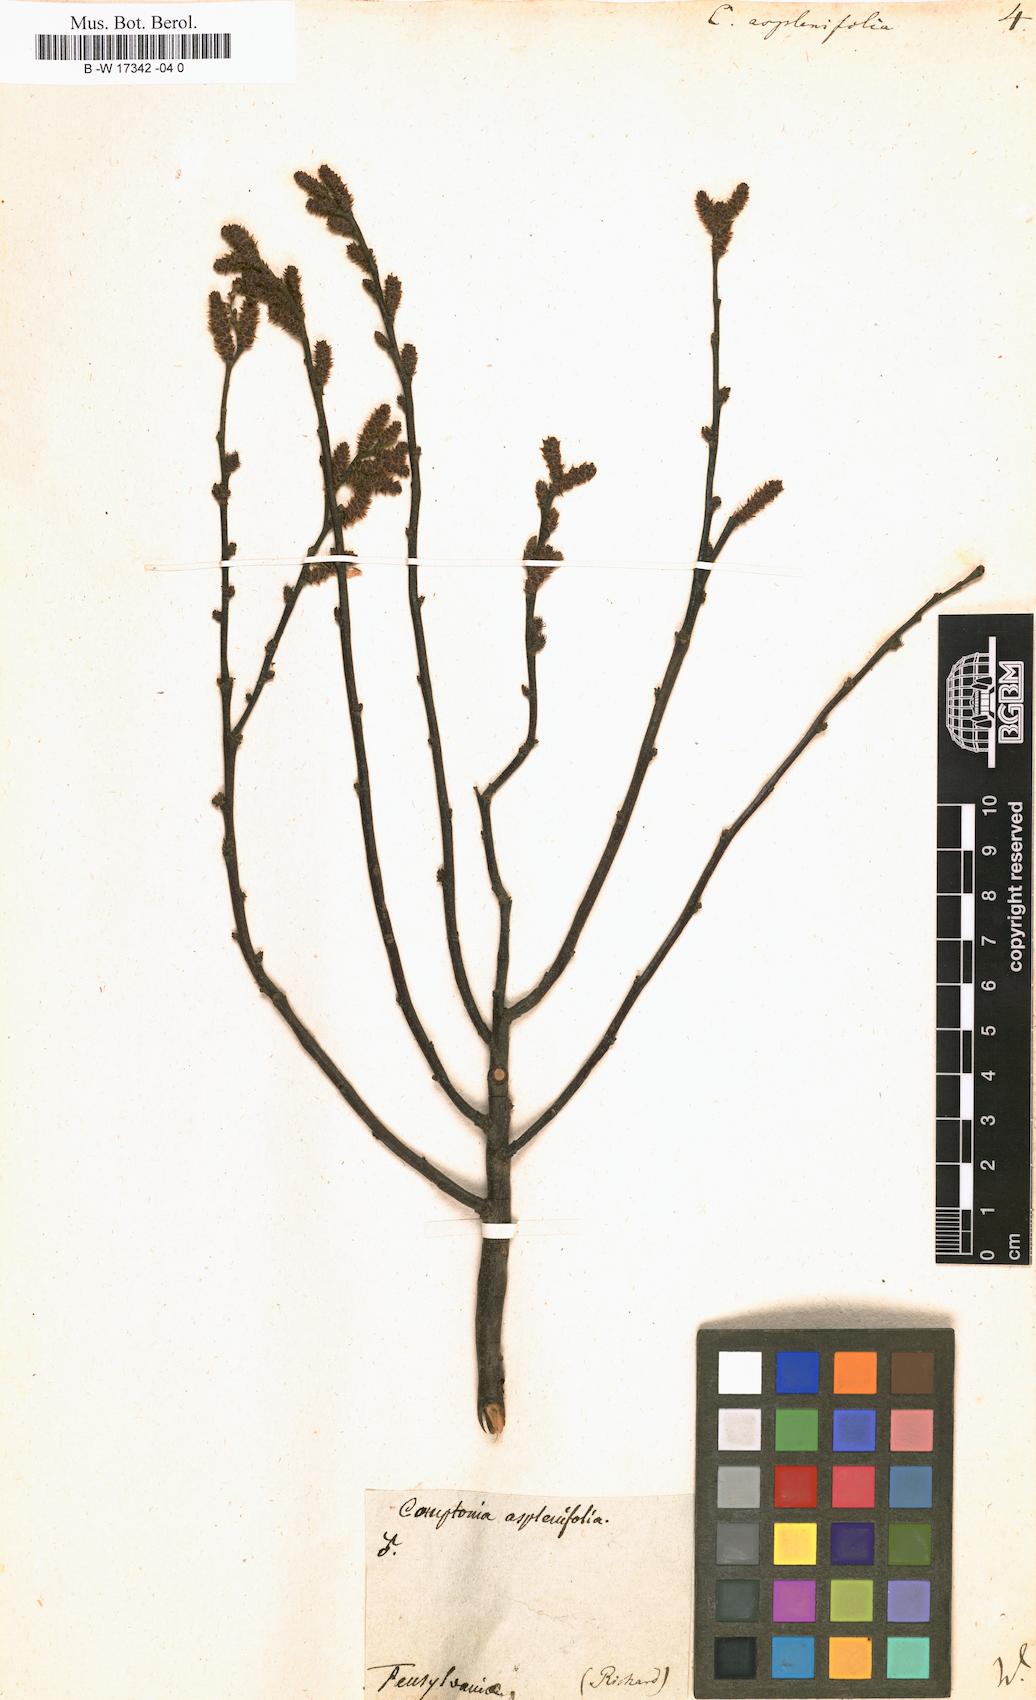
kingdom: Plantae
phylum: Tracheophyta
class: Magnoliopsida
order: Fagales
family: Myricaceae
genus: Comptonia
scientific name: Comptonia aspleniifolia
